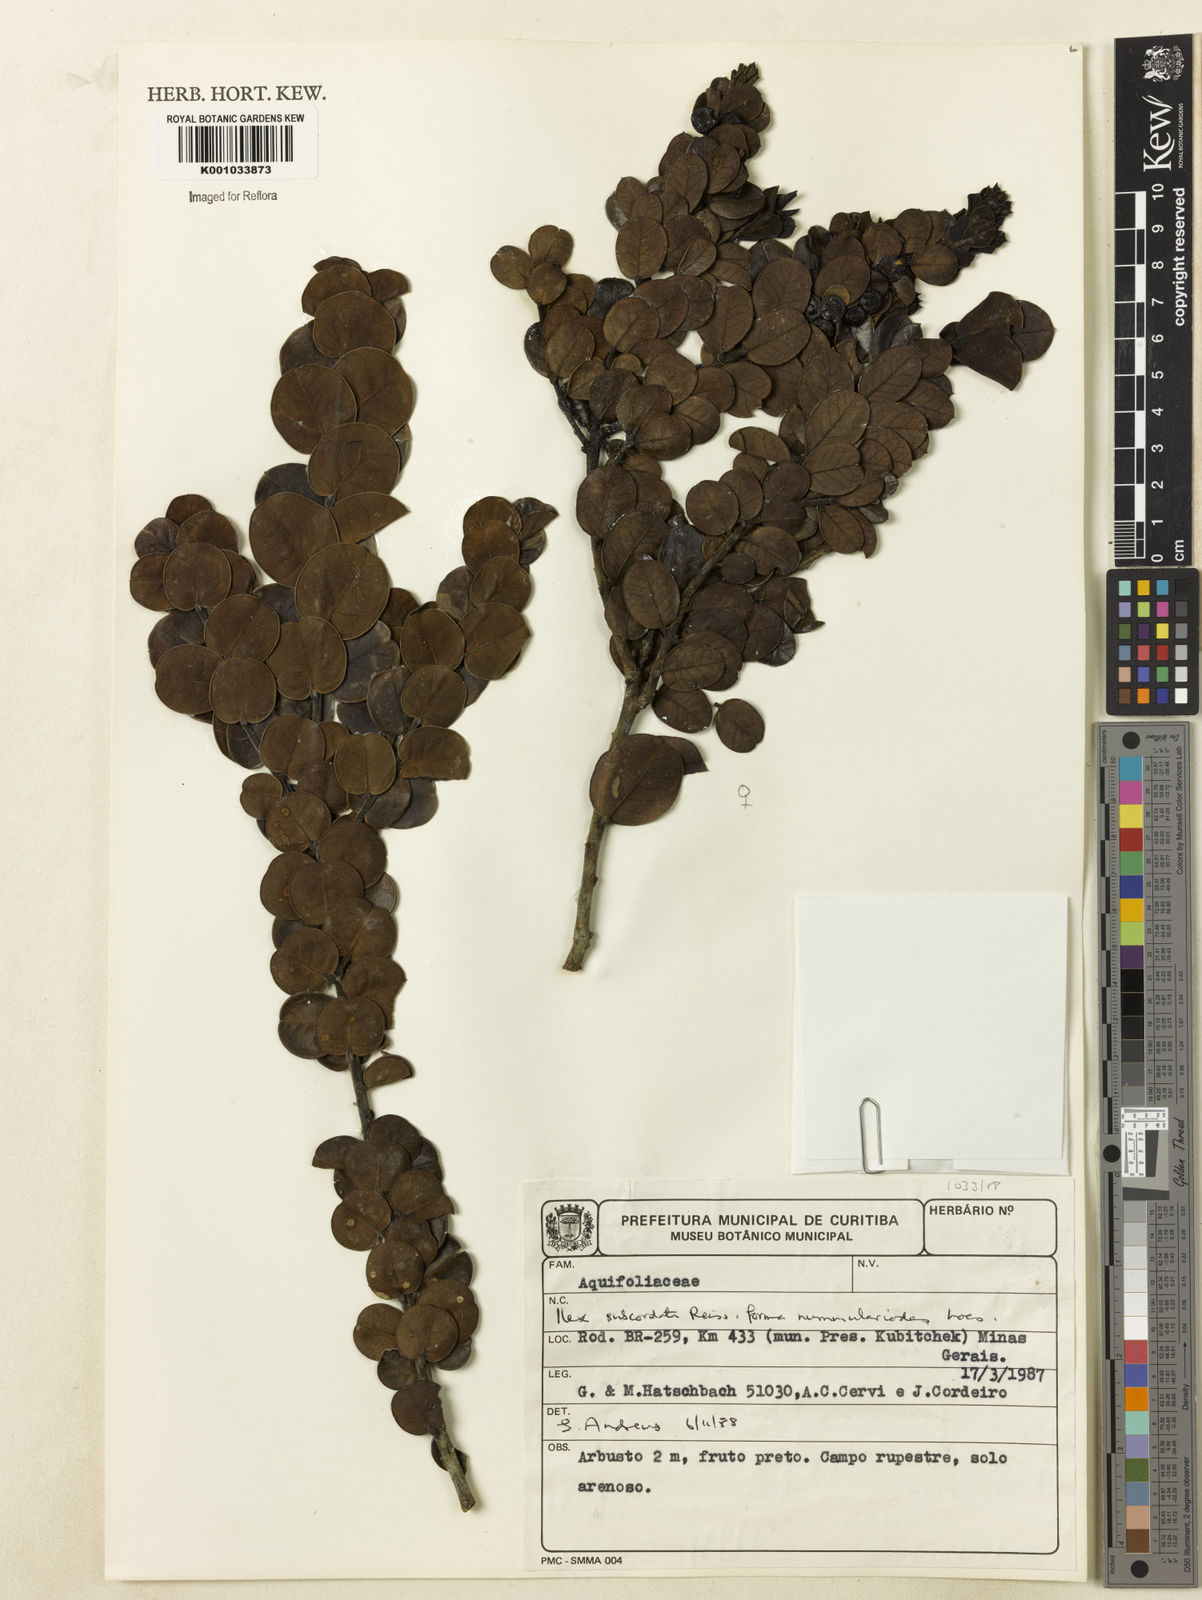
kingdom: Plantae
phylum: Tracheophyta
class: Magnoliopsida
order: Aquifoliales
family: Aquifoliaceae
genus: Ilex
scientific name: Ilex subcordata
